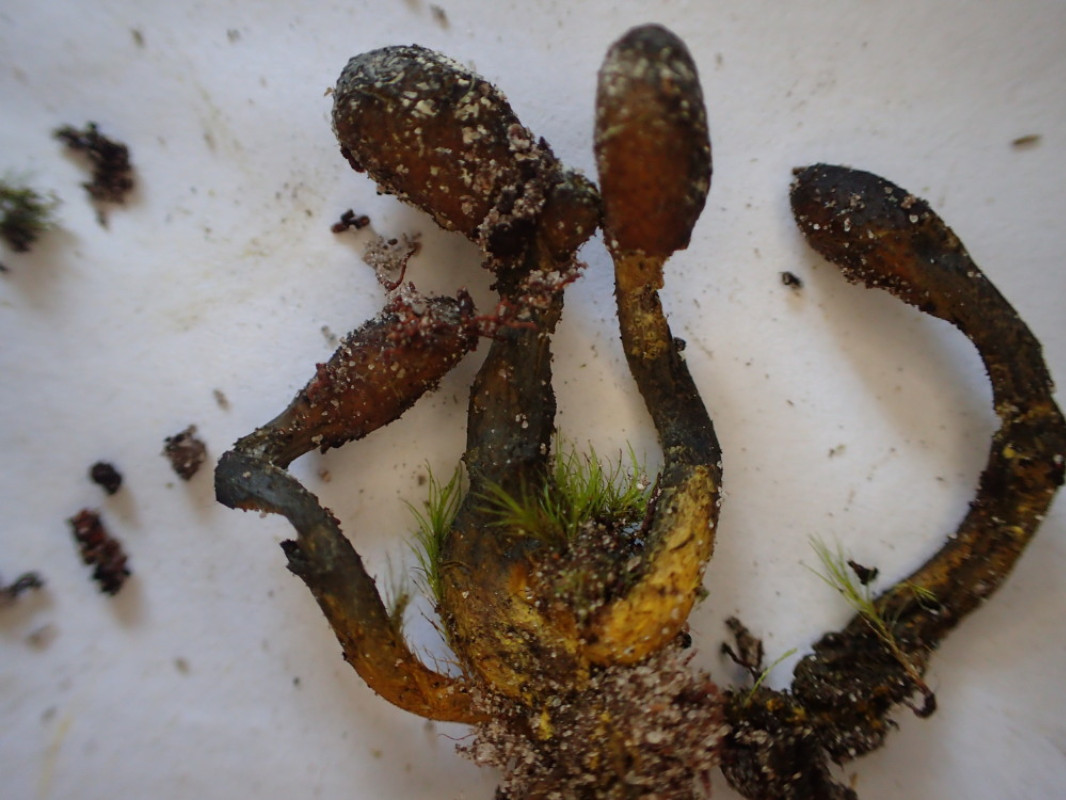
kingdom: Fungi
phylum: Ascomycota
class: Sordariomycetes
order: Hypocreales
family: Ophiocordycipitaceae
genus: Tolypocladium
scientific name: Tolypocladium ophioglossoides
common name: slank snyltekølle
